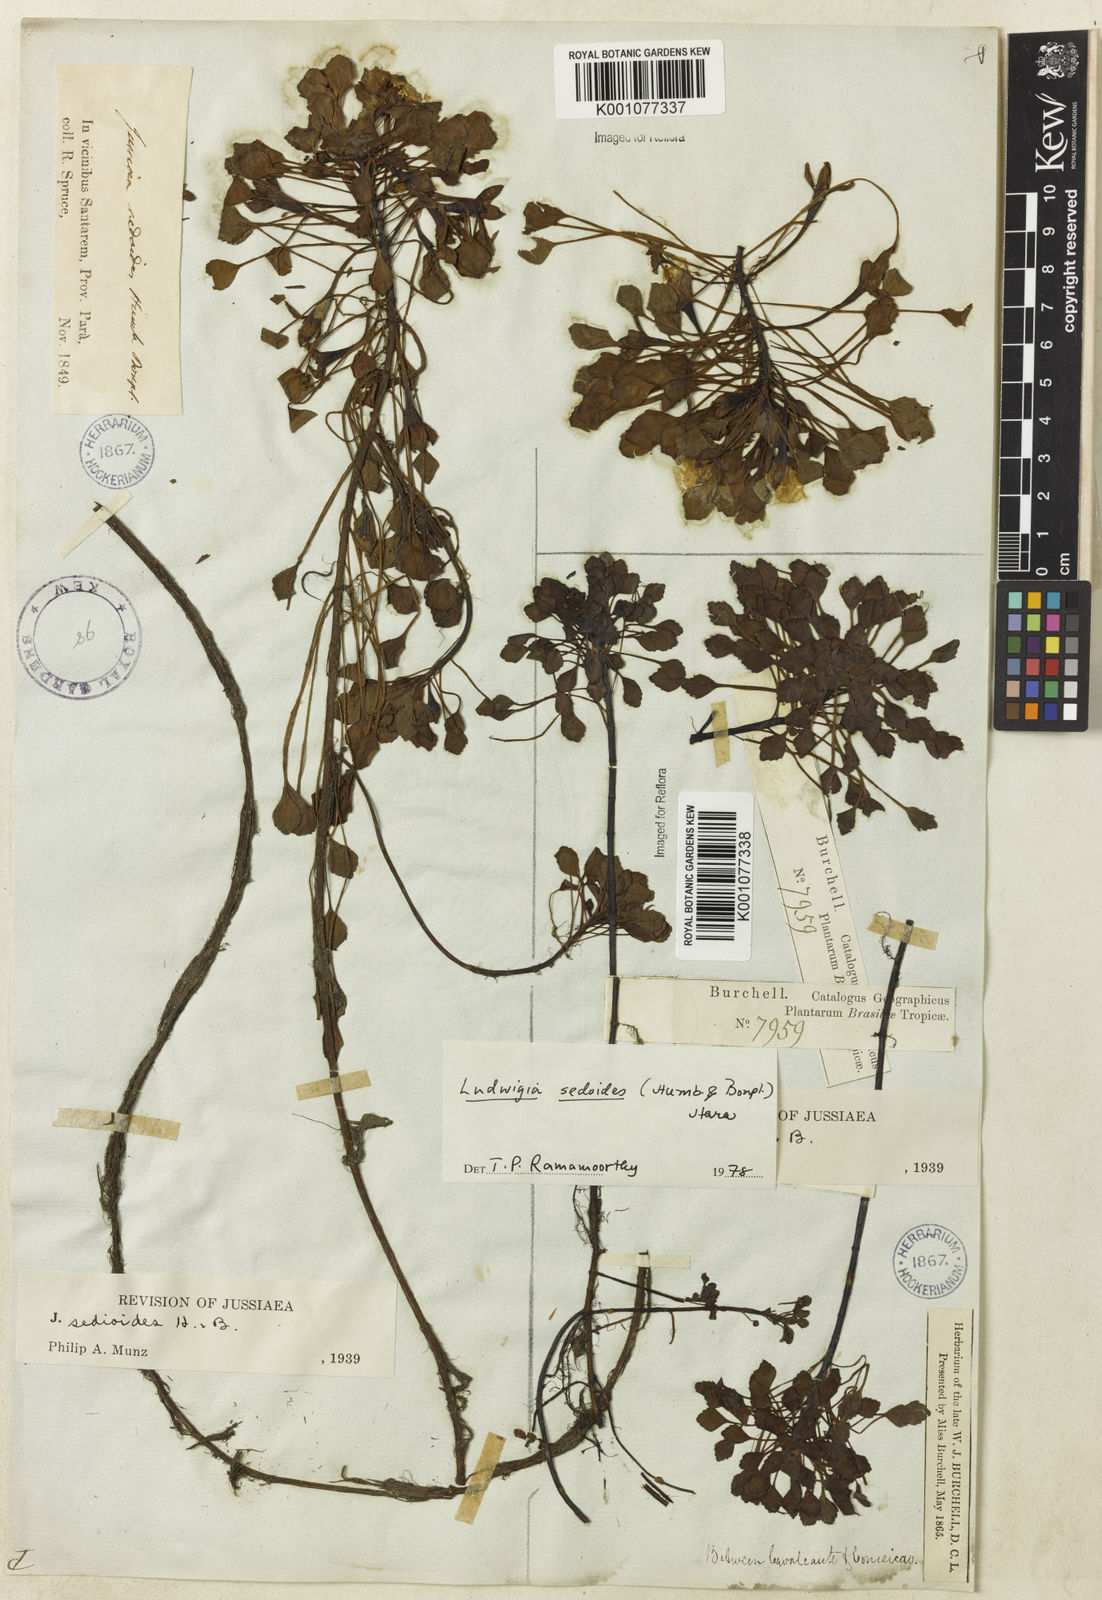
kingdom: Plantae
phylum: Tracheophyta
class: Magnoliopsida
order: Myrtales
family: Onagraceae
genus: Ludwigia
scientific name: Ludwigia sedoides
